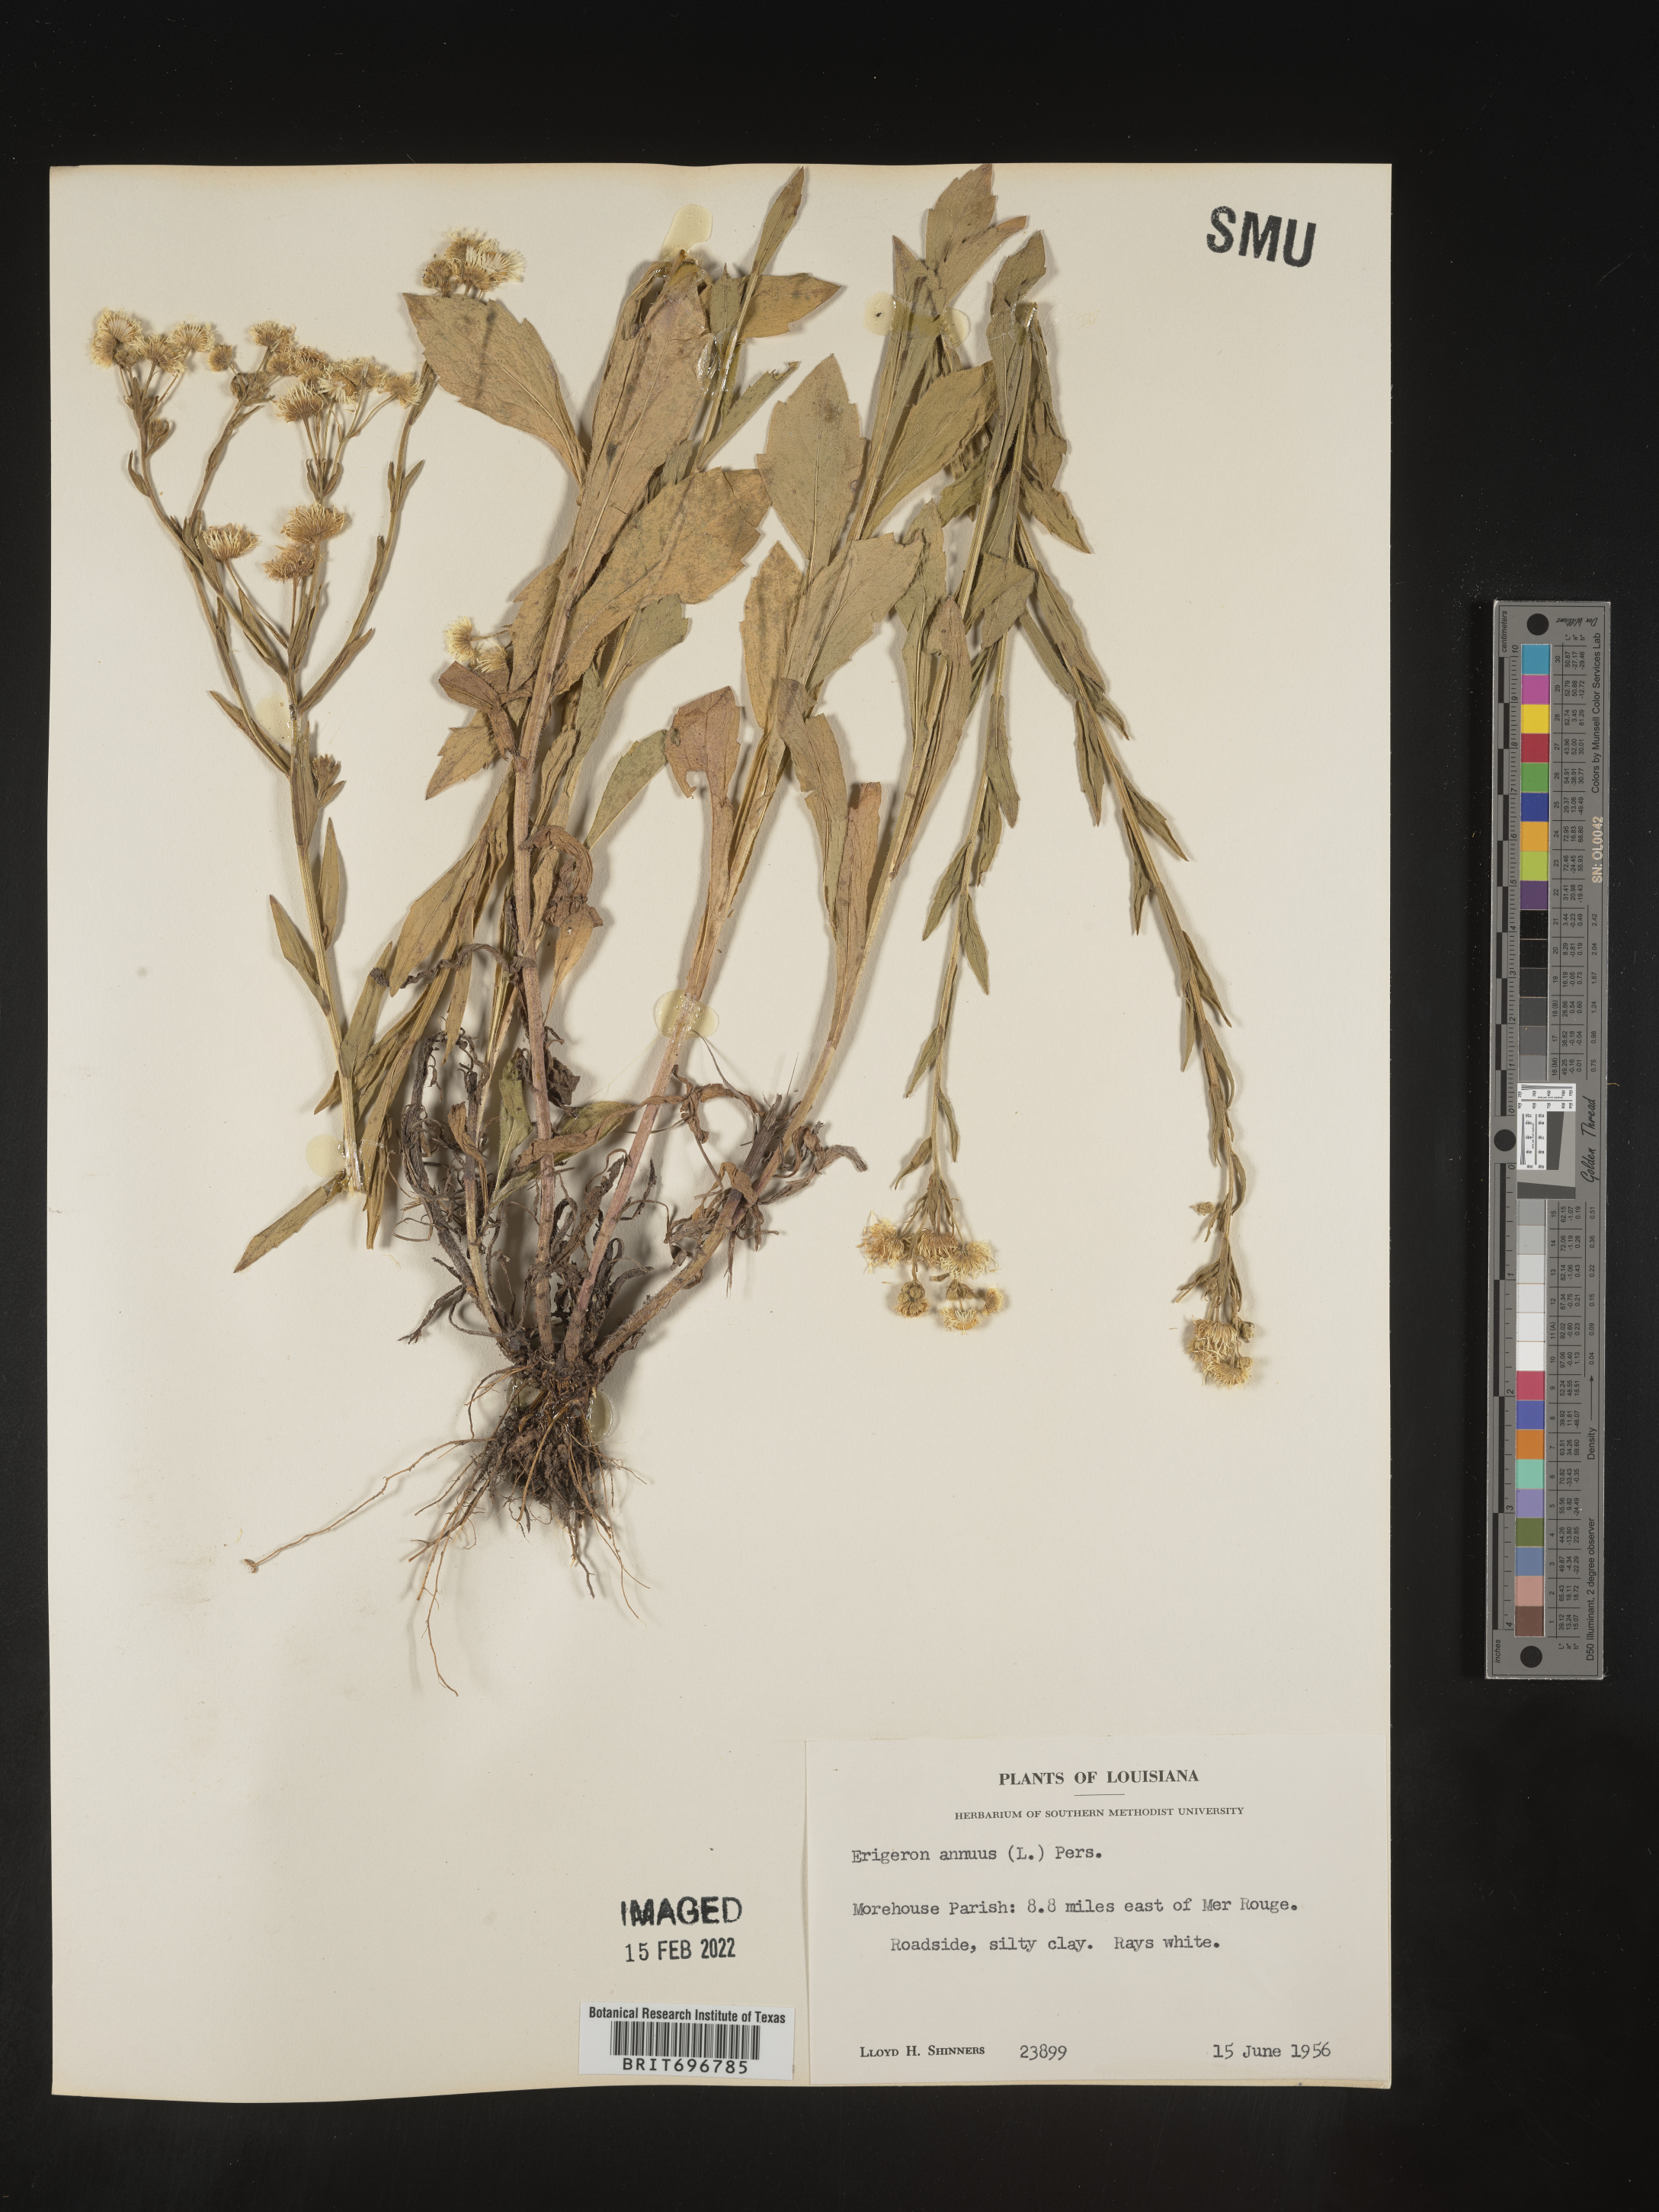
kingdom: Plantae
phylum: Tracheophyta
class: Magnoliopsida
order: Asterales
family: Asteraceae
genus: Erigeron
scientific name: Erigeron annuus
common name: Tall fleabane
